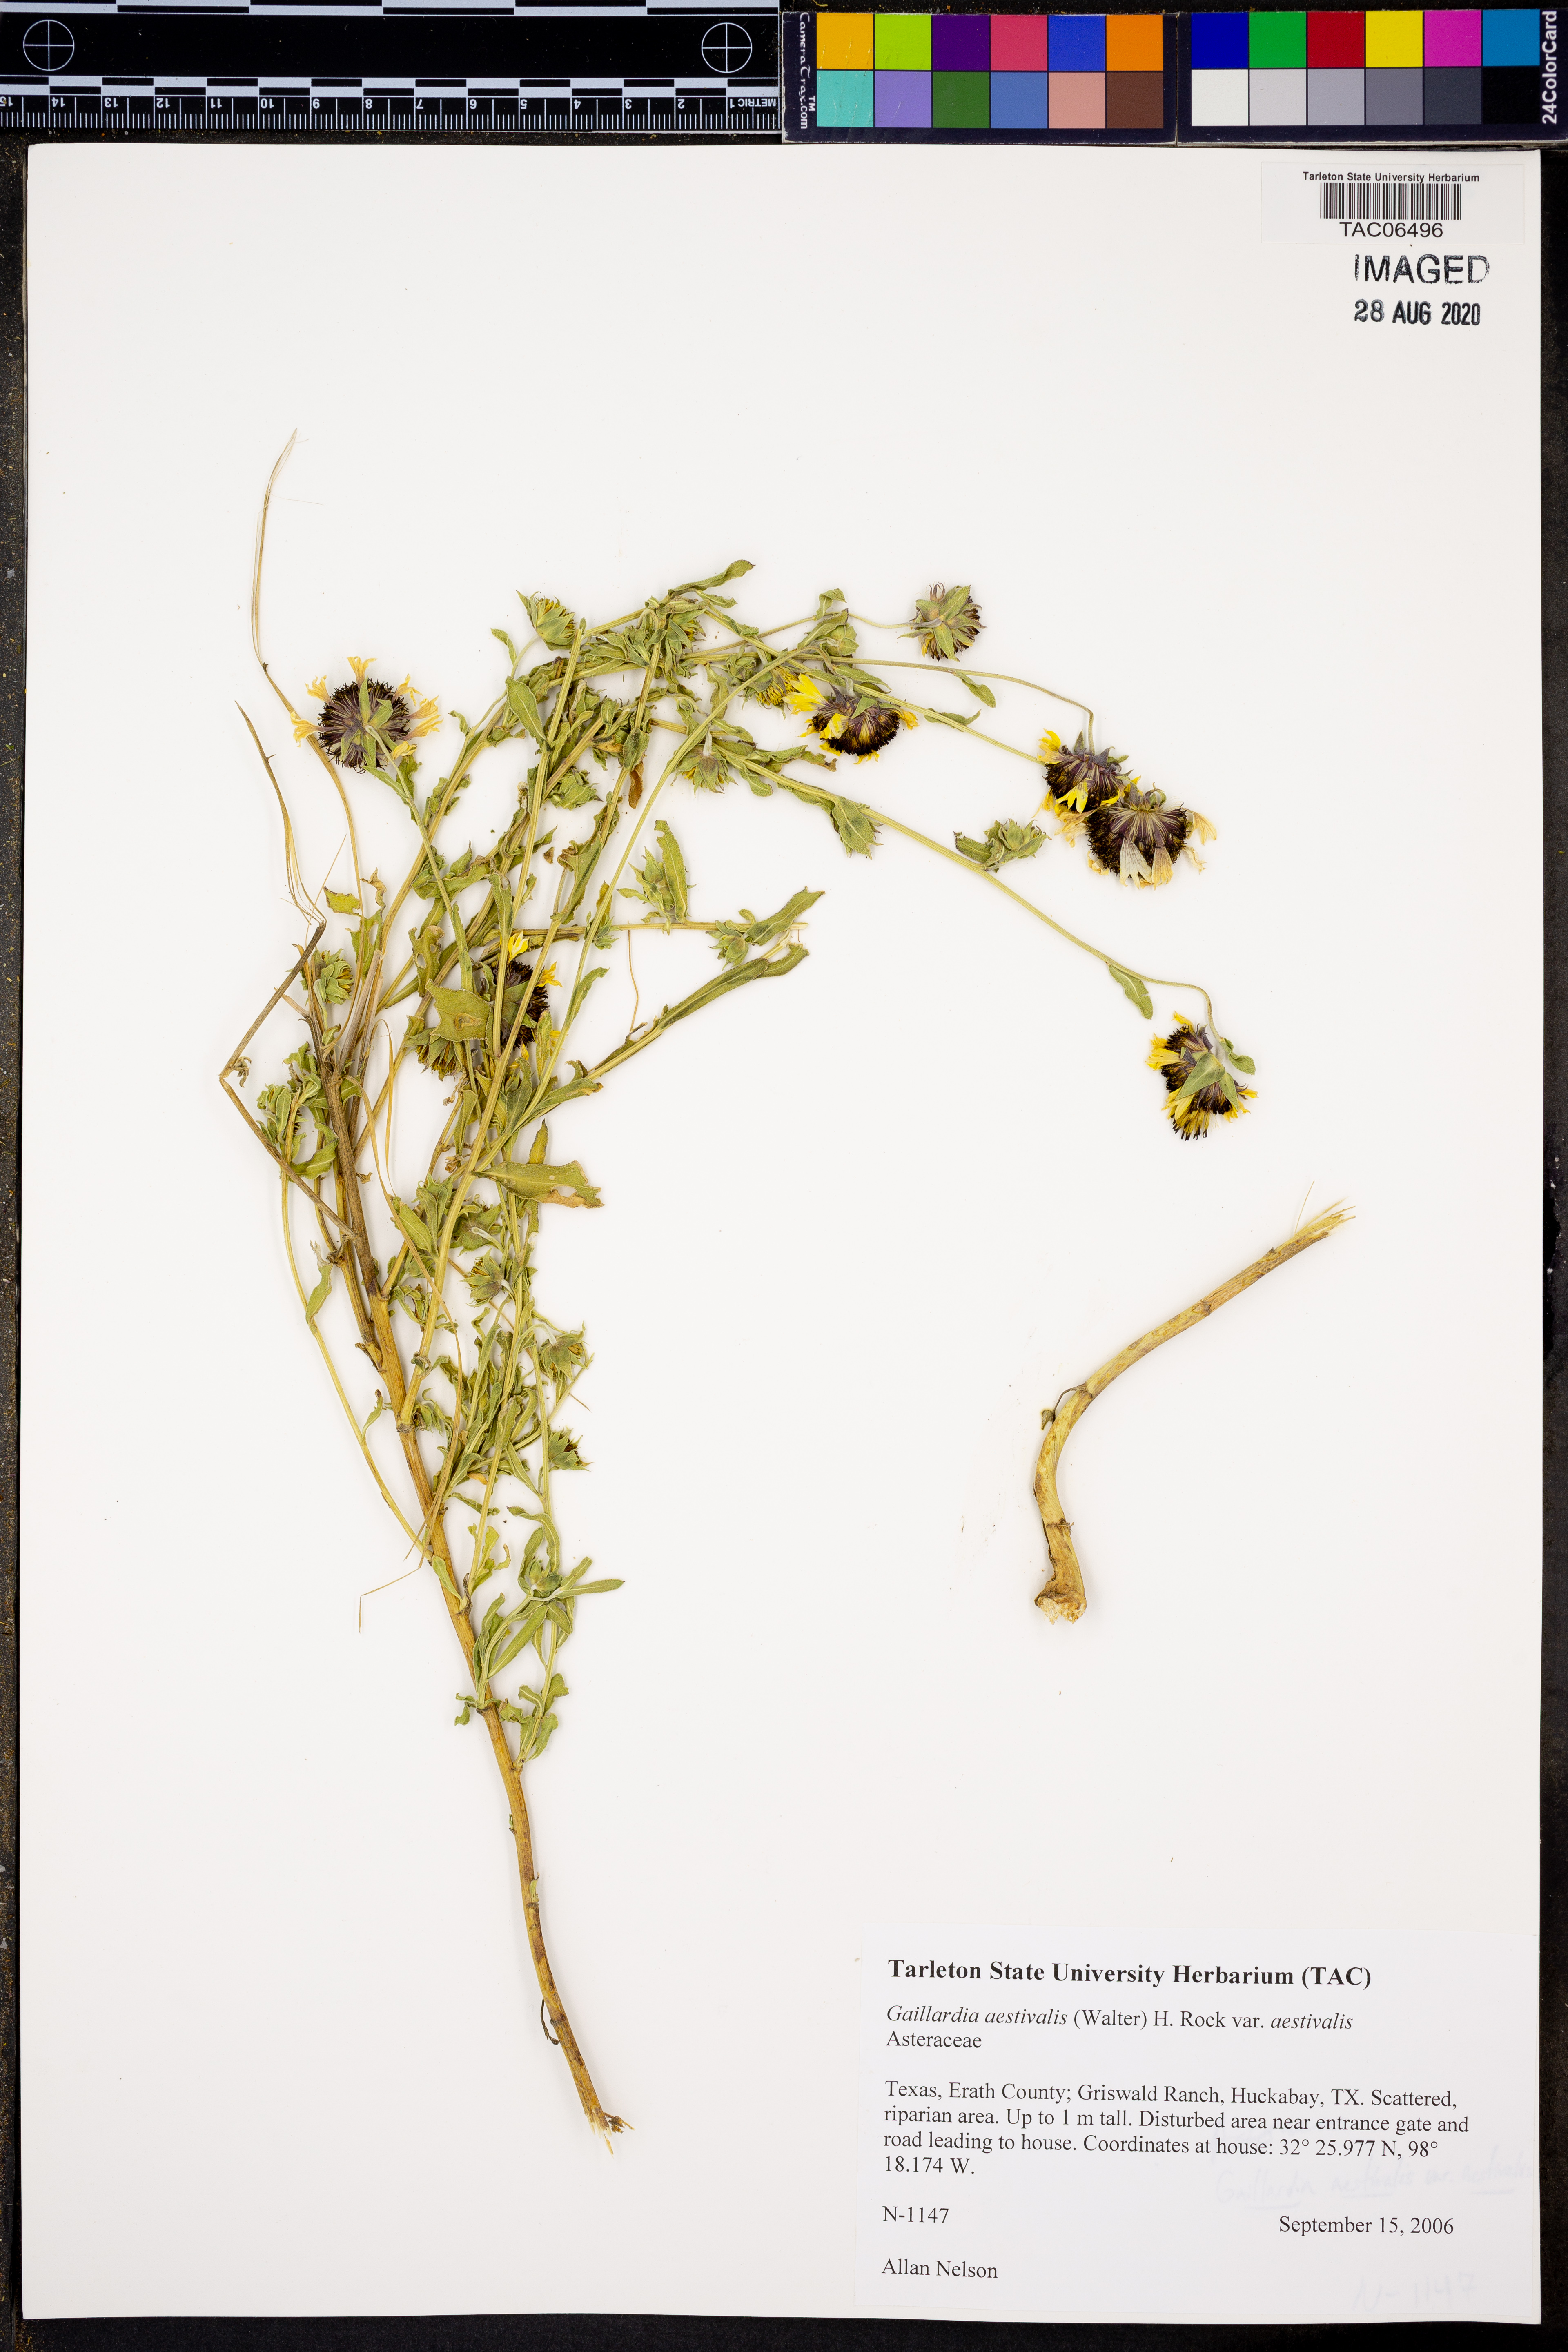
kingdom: Plantae
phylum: Tracheophyta
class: Magnoliopsida
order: Asterales
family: Asteraceae
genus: Gaillardia
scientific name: Gaillardia aestivalis
